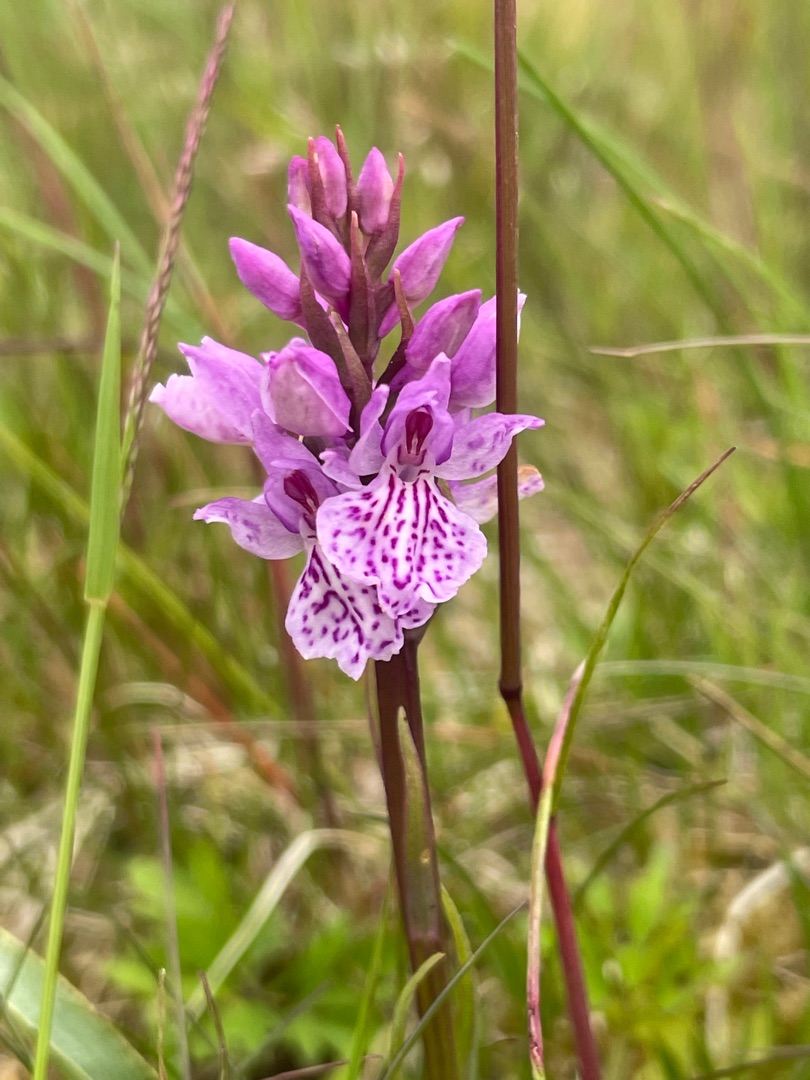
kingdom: Plantae
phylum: Tracheophyta
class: Liliopsida
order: Asparagales
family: Orchidaceae
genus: Dactylorhiza
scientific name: Dactylorhiza maculata
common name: Plettet gøgeurt
